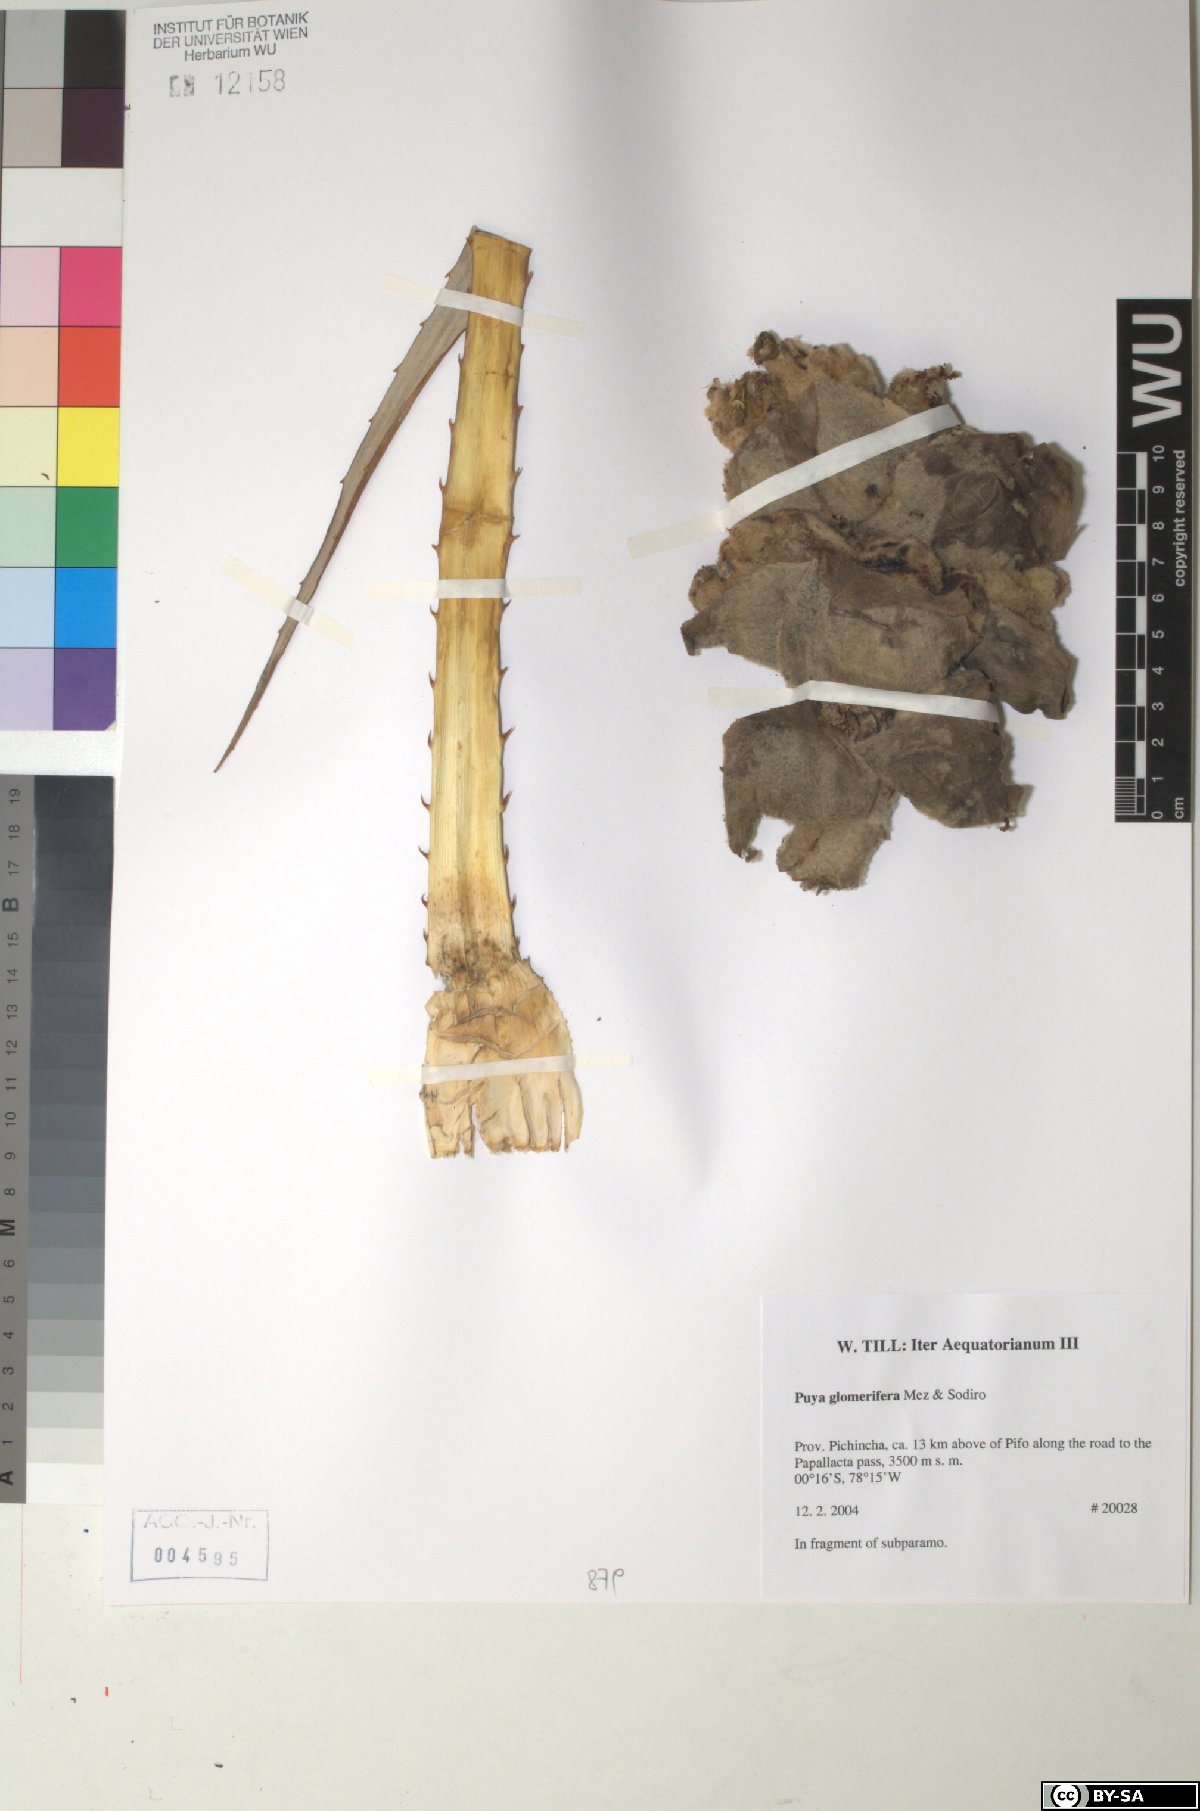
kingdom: Plantae
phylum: Tracheophyta
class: Liliopsida
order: Poales
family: Bromeliaceae
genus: Puya
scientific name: Puya glomerifera
